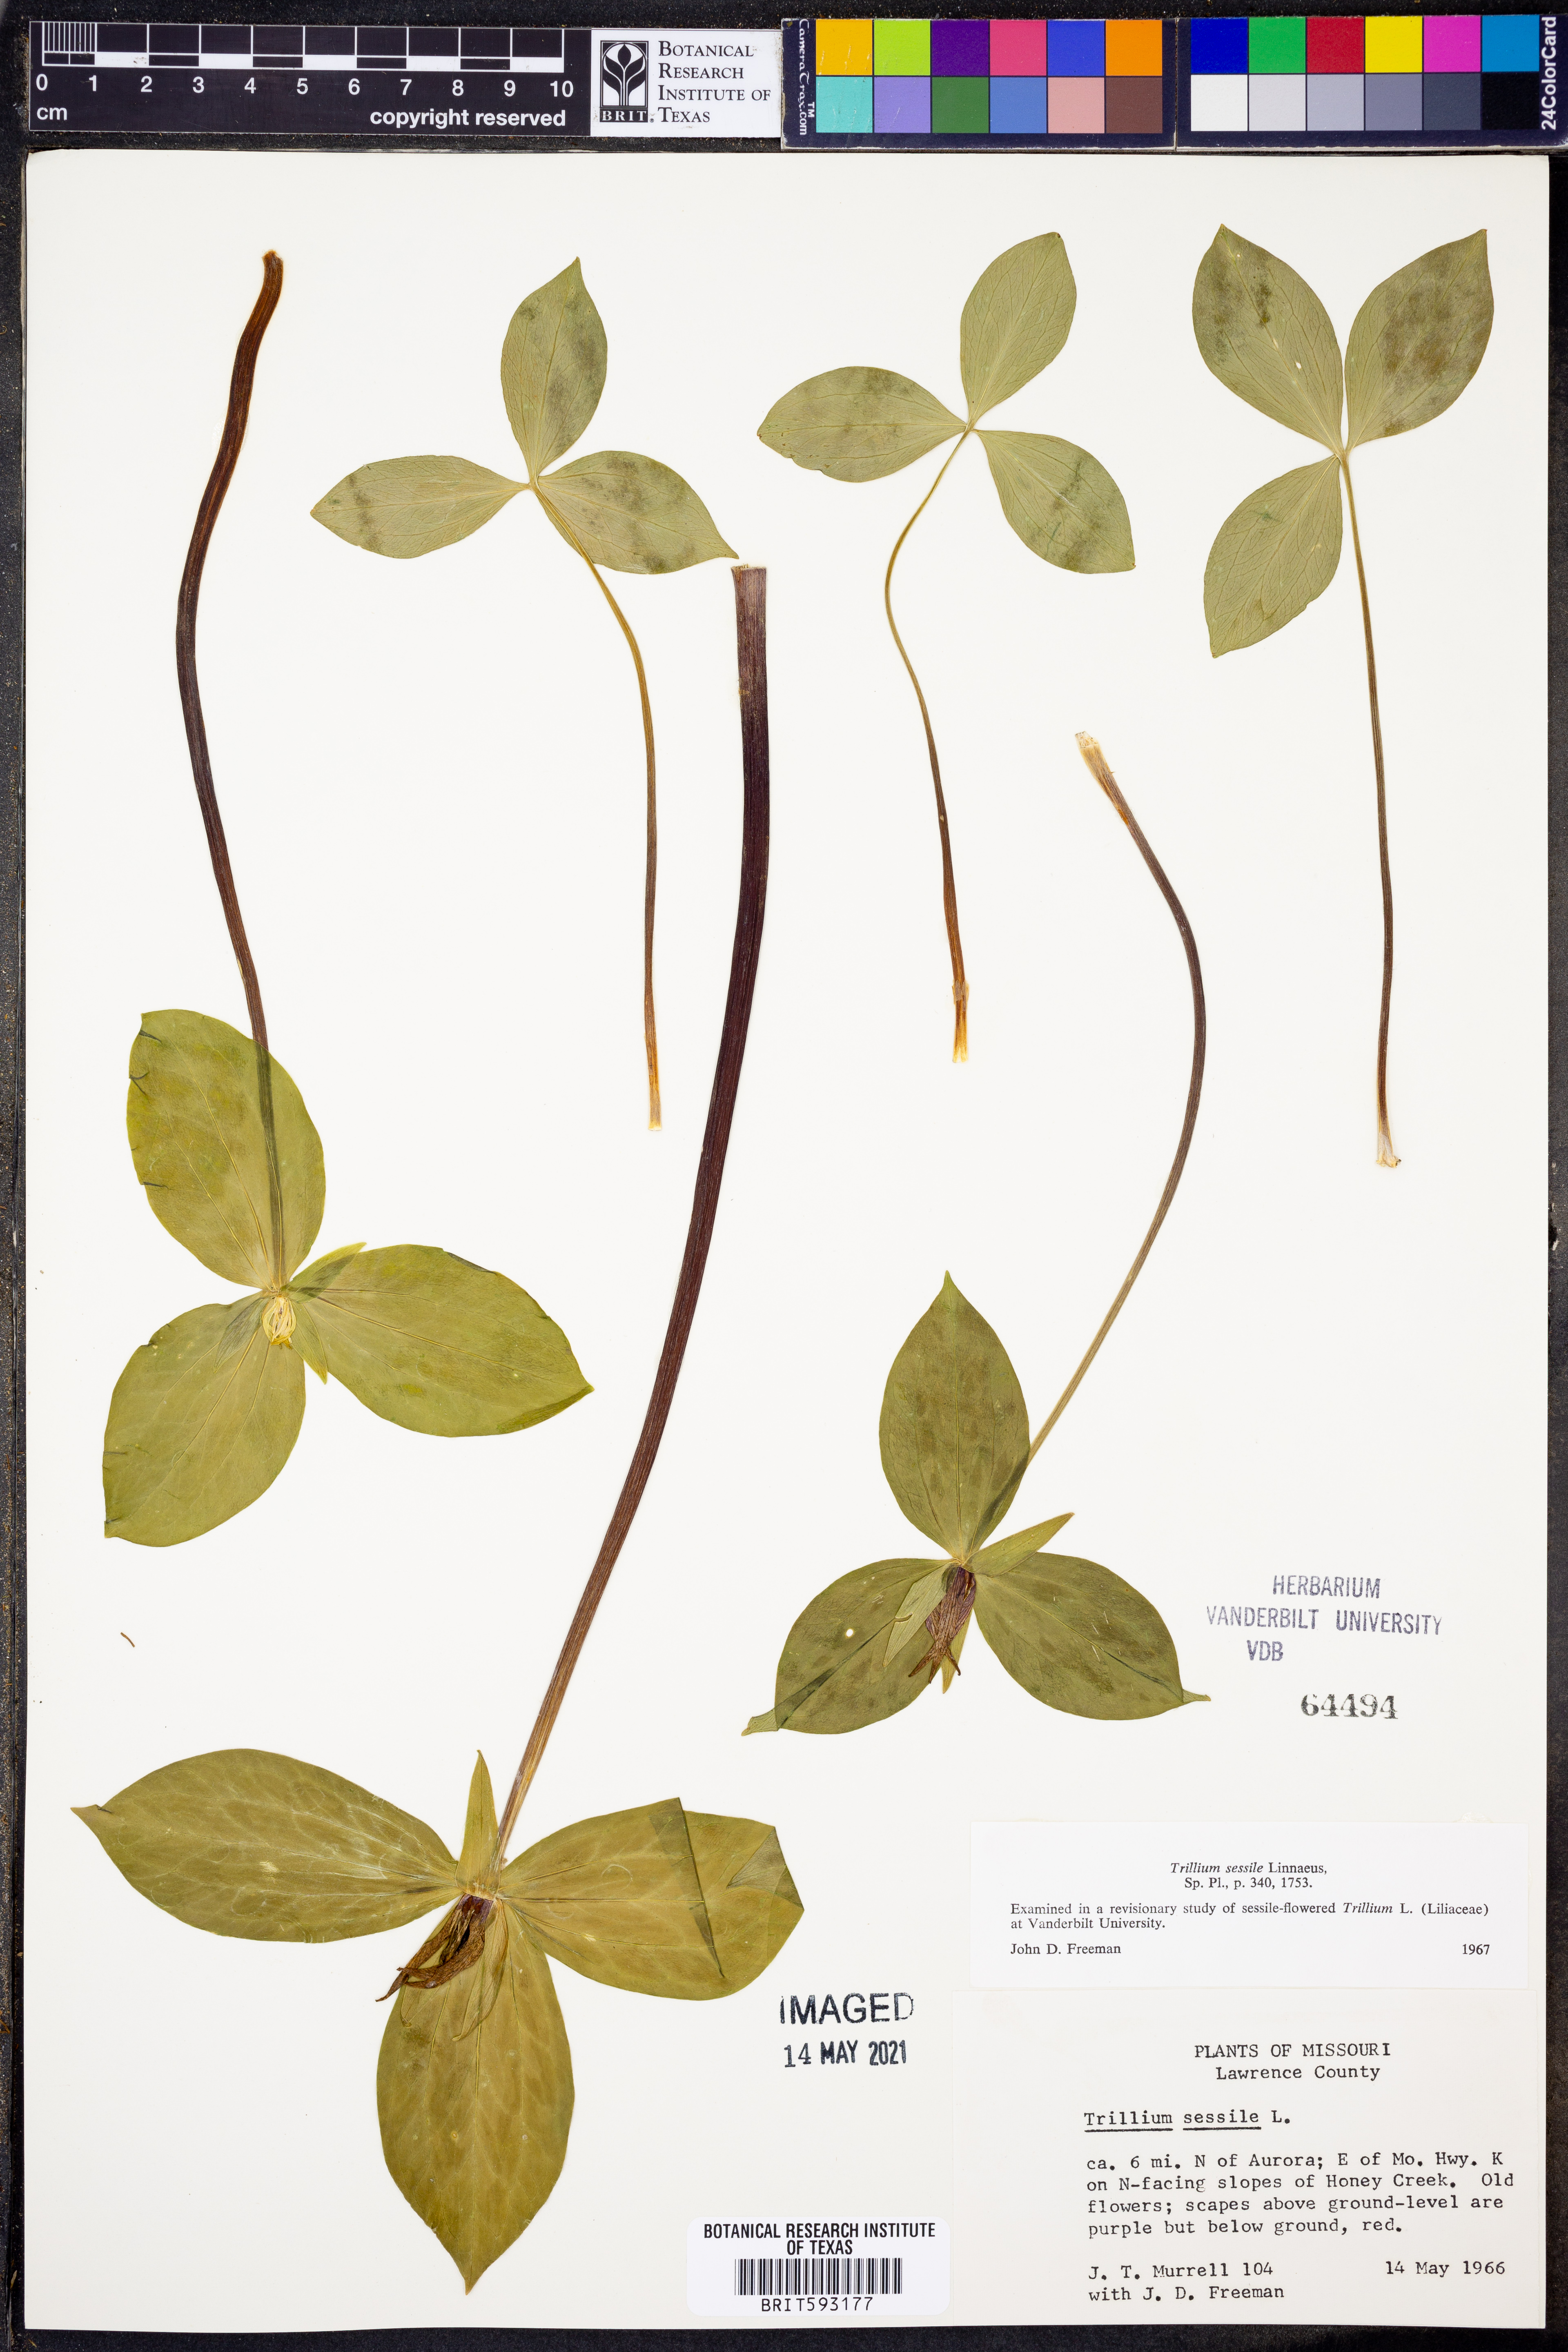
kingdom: Plantae
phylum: Tracheophyta
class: Liliopsida
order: Liliales
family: Melanthiaceae
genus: Trillium
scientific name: Trillium sessile
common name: Sessile trillium
